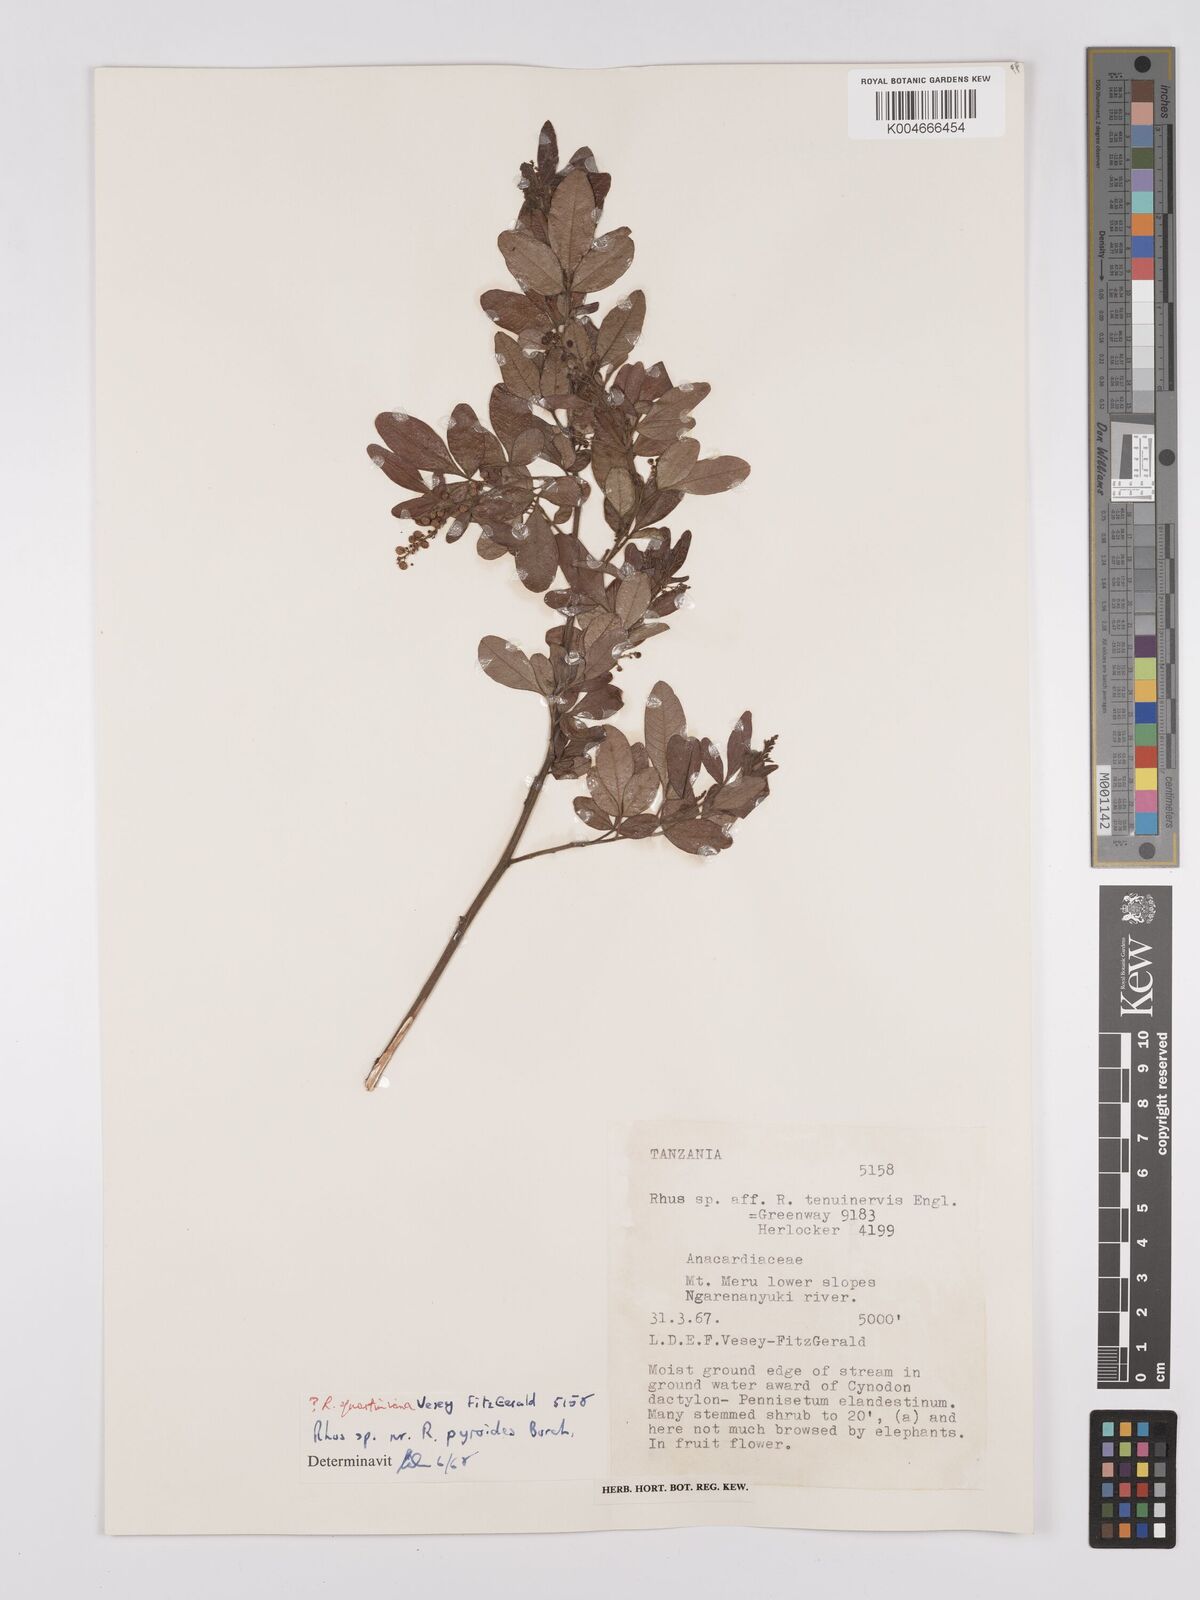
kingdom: Plantae
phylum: Tracheophyta
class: Magnoliopsida
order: Sapindales
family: Anacardiaceae
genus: Searsia
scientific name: Searsia quartiniana
